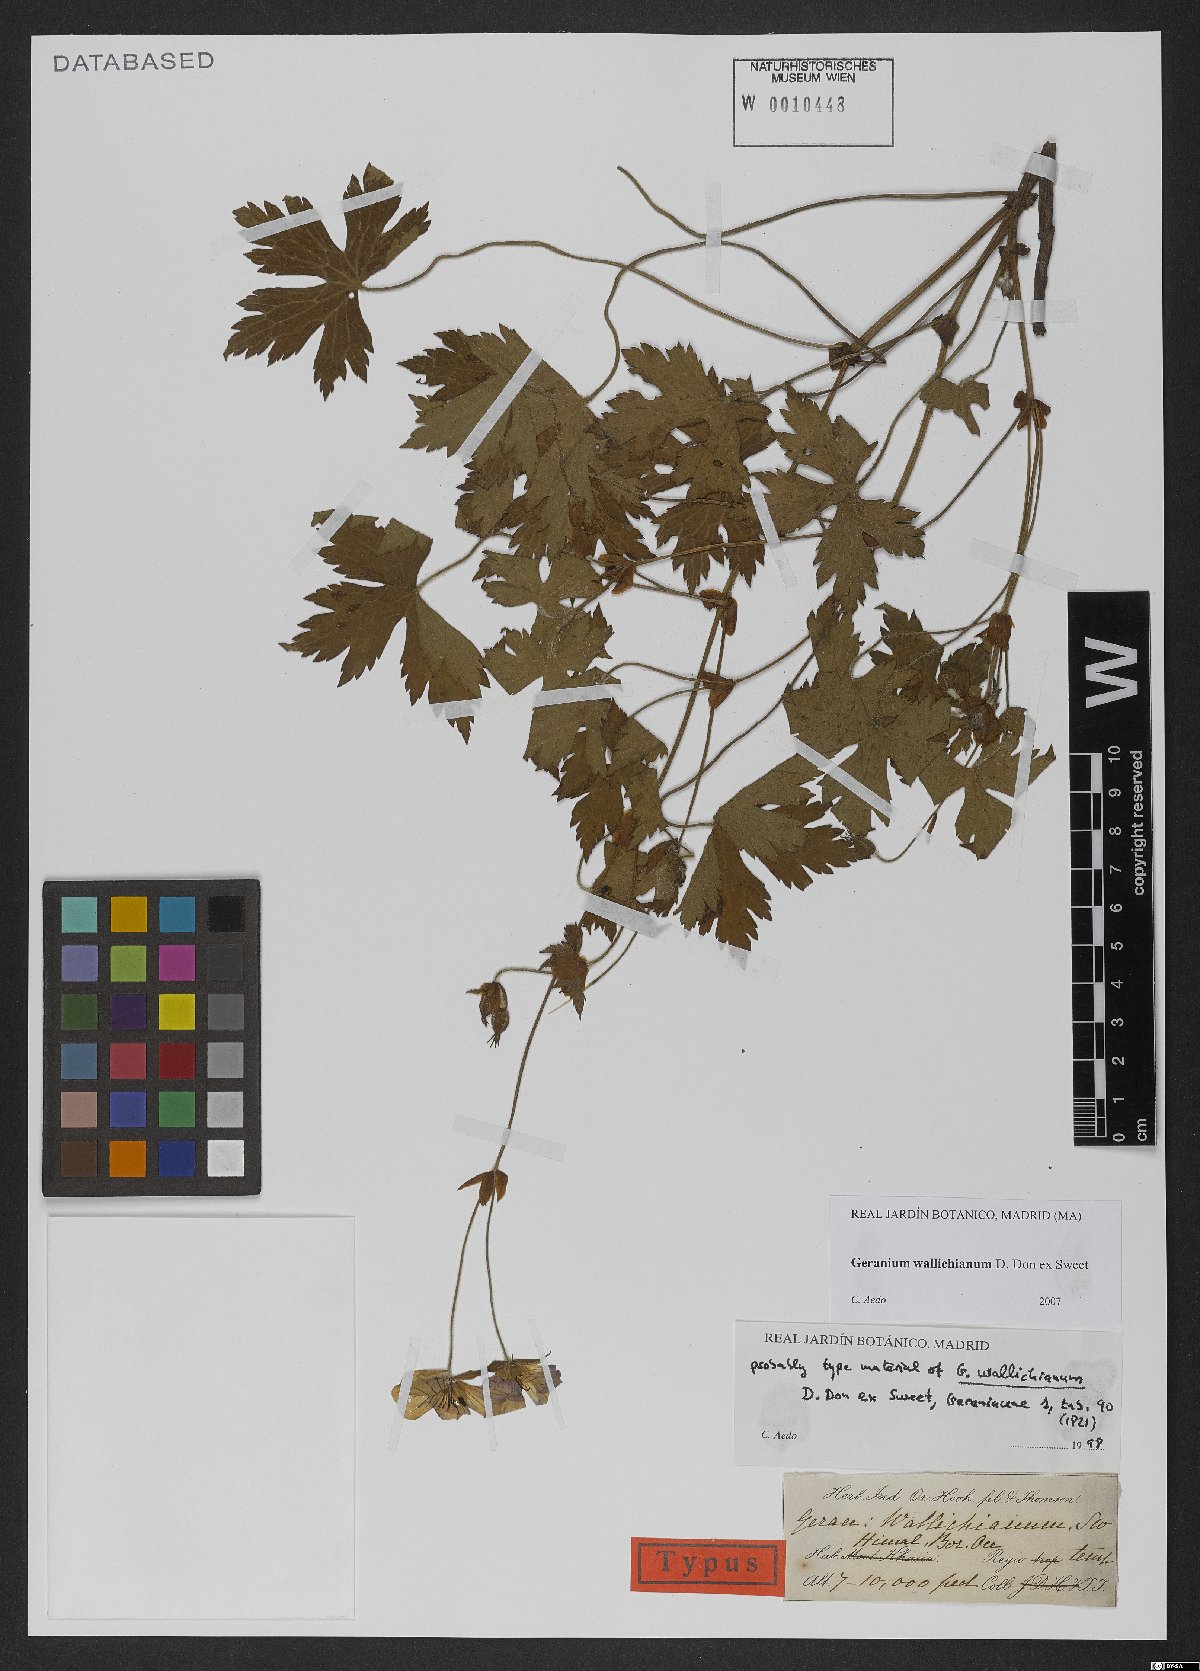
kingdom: Plantae
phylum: Tracheophyta
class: Magnoliopsida
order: Geraniales
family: Geraniaceae
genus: Geranium
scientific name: Geranium wallichianum
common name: Buxton's blue
